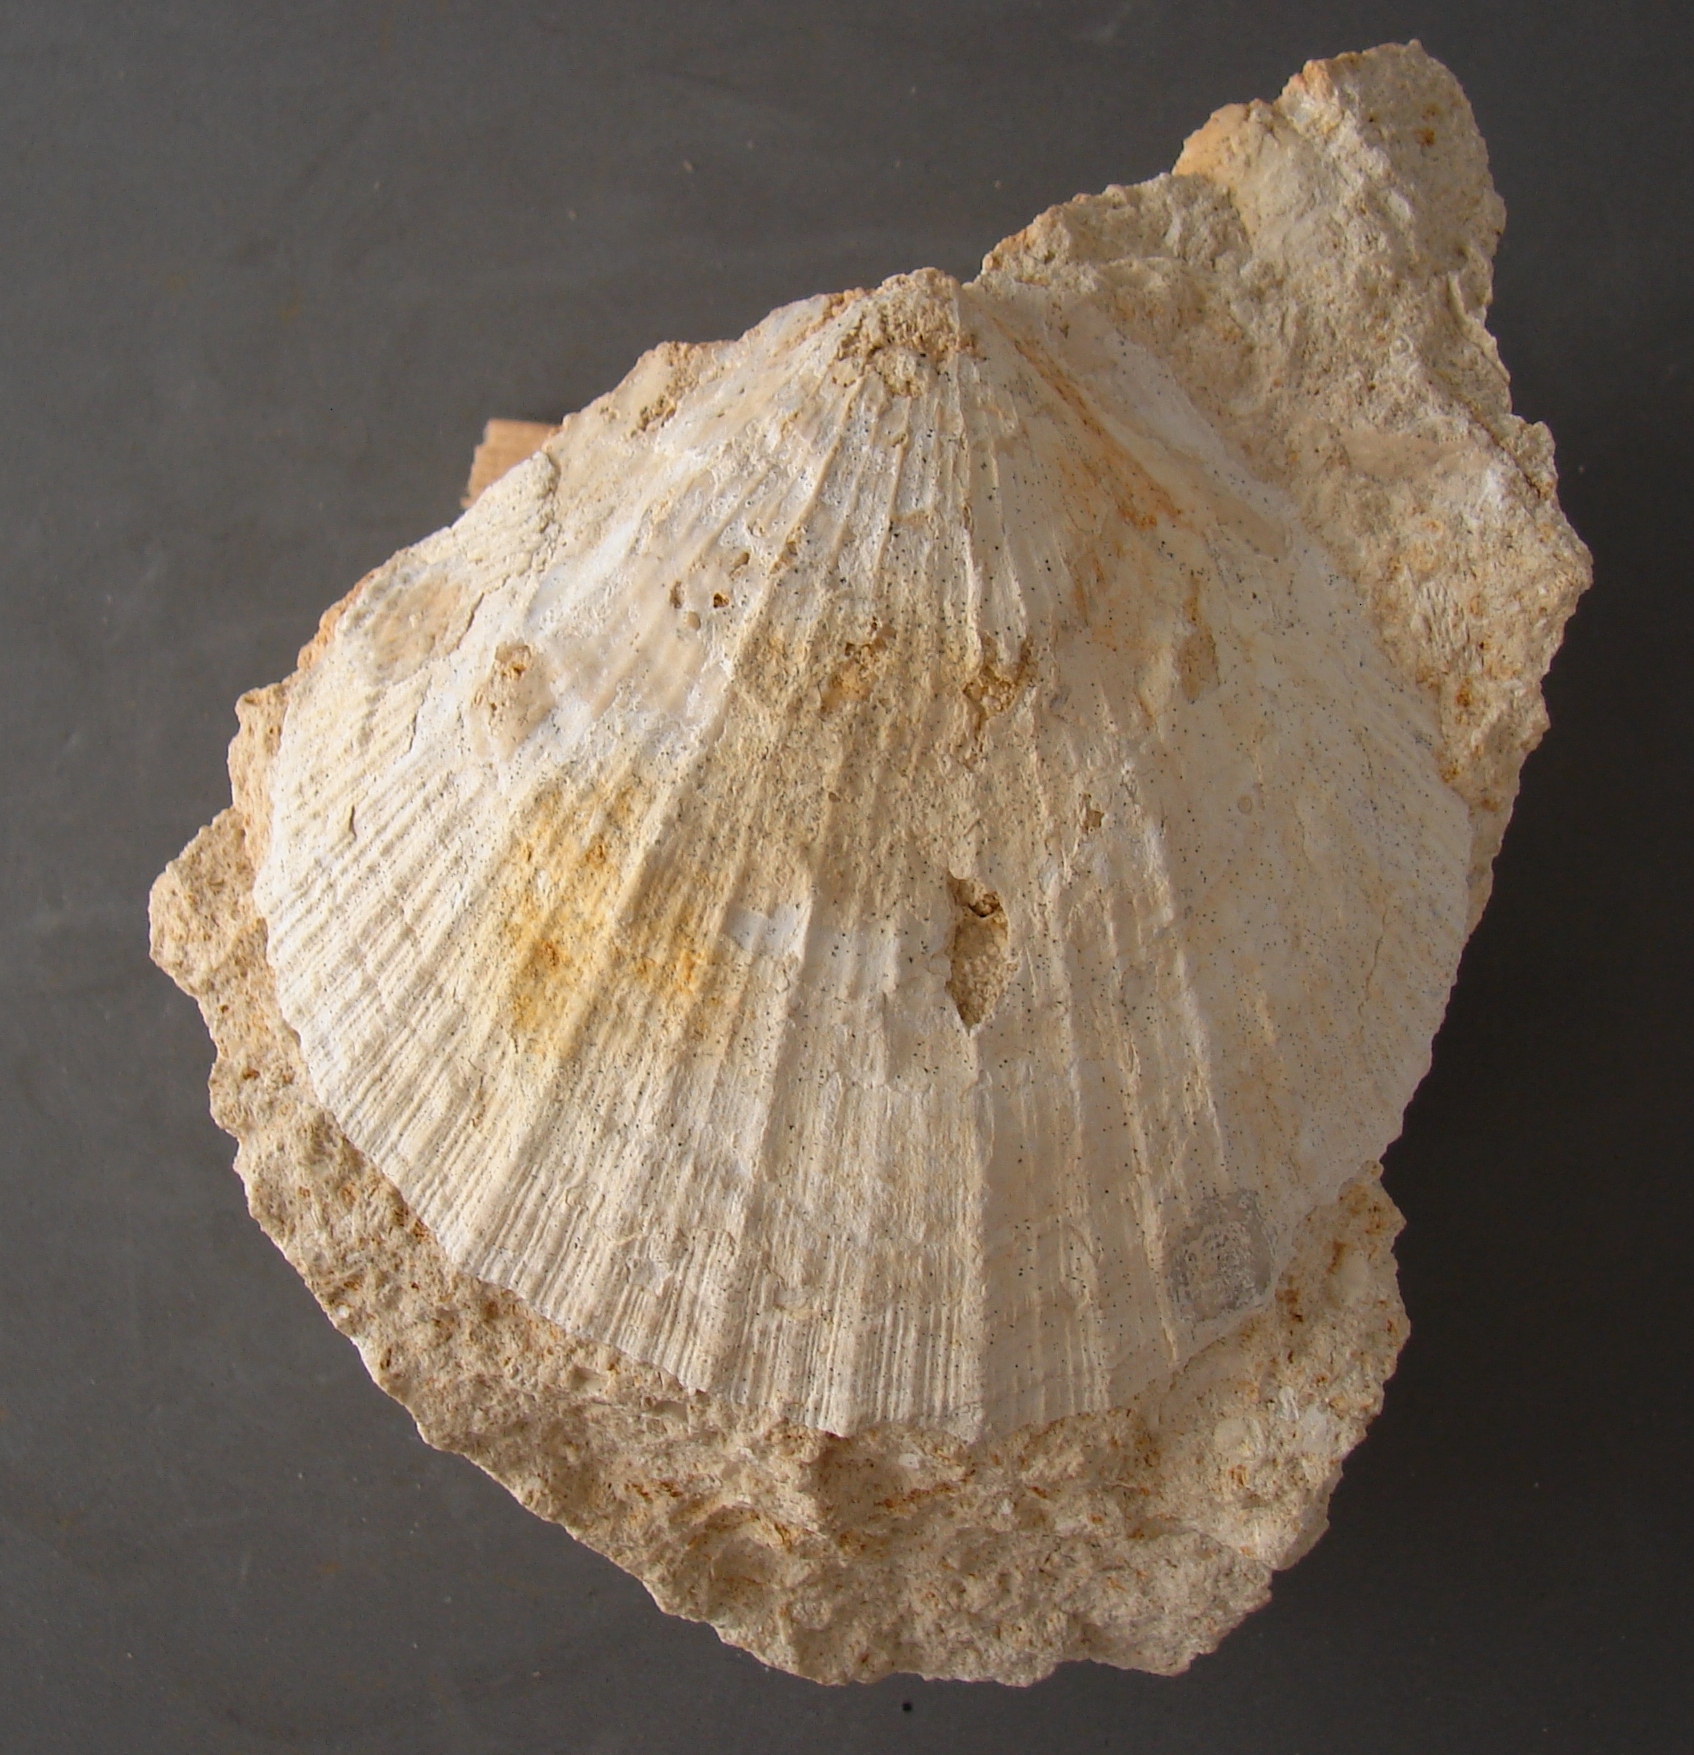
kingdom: Animalia
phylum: Mollusca
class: Bivalvia
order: Pectinida
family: Pectinidae
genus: Eopecten
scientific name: Eopecten abjectus
